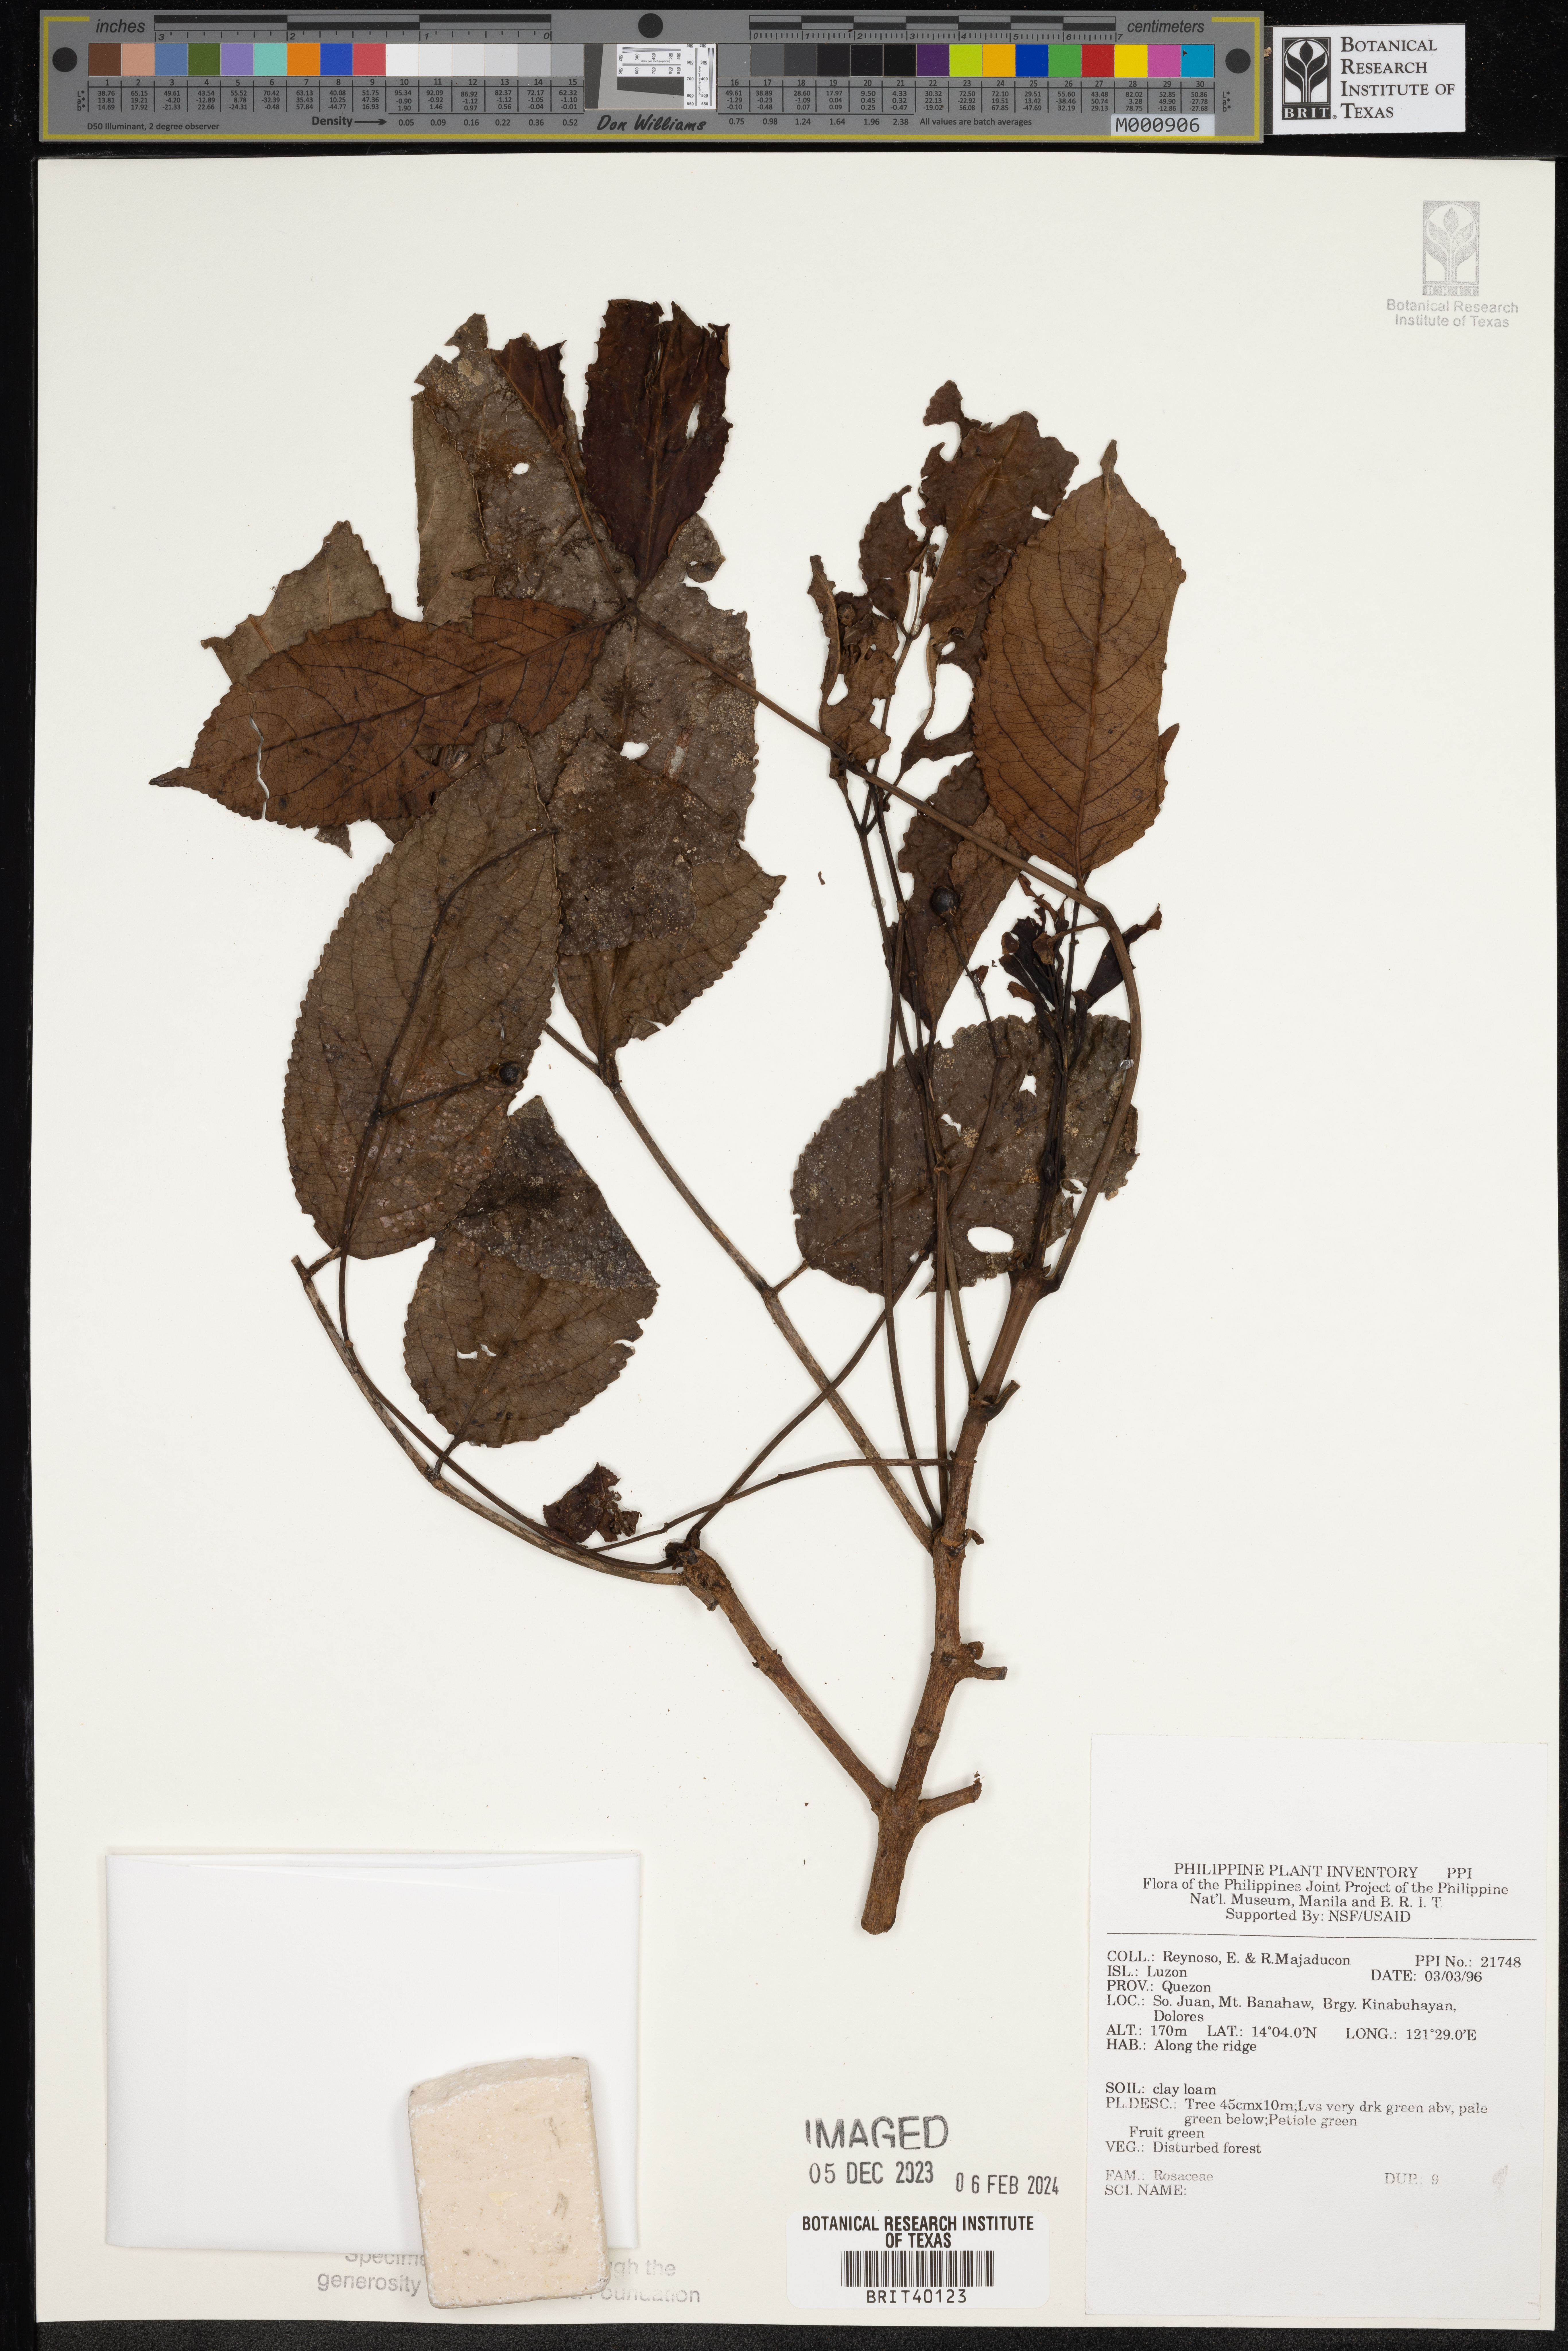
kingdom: Plantae
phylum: Tracheophyta
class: Magnoliopsida
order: Rosales
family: Rosaceae
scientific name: Rosaceae
